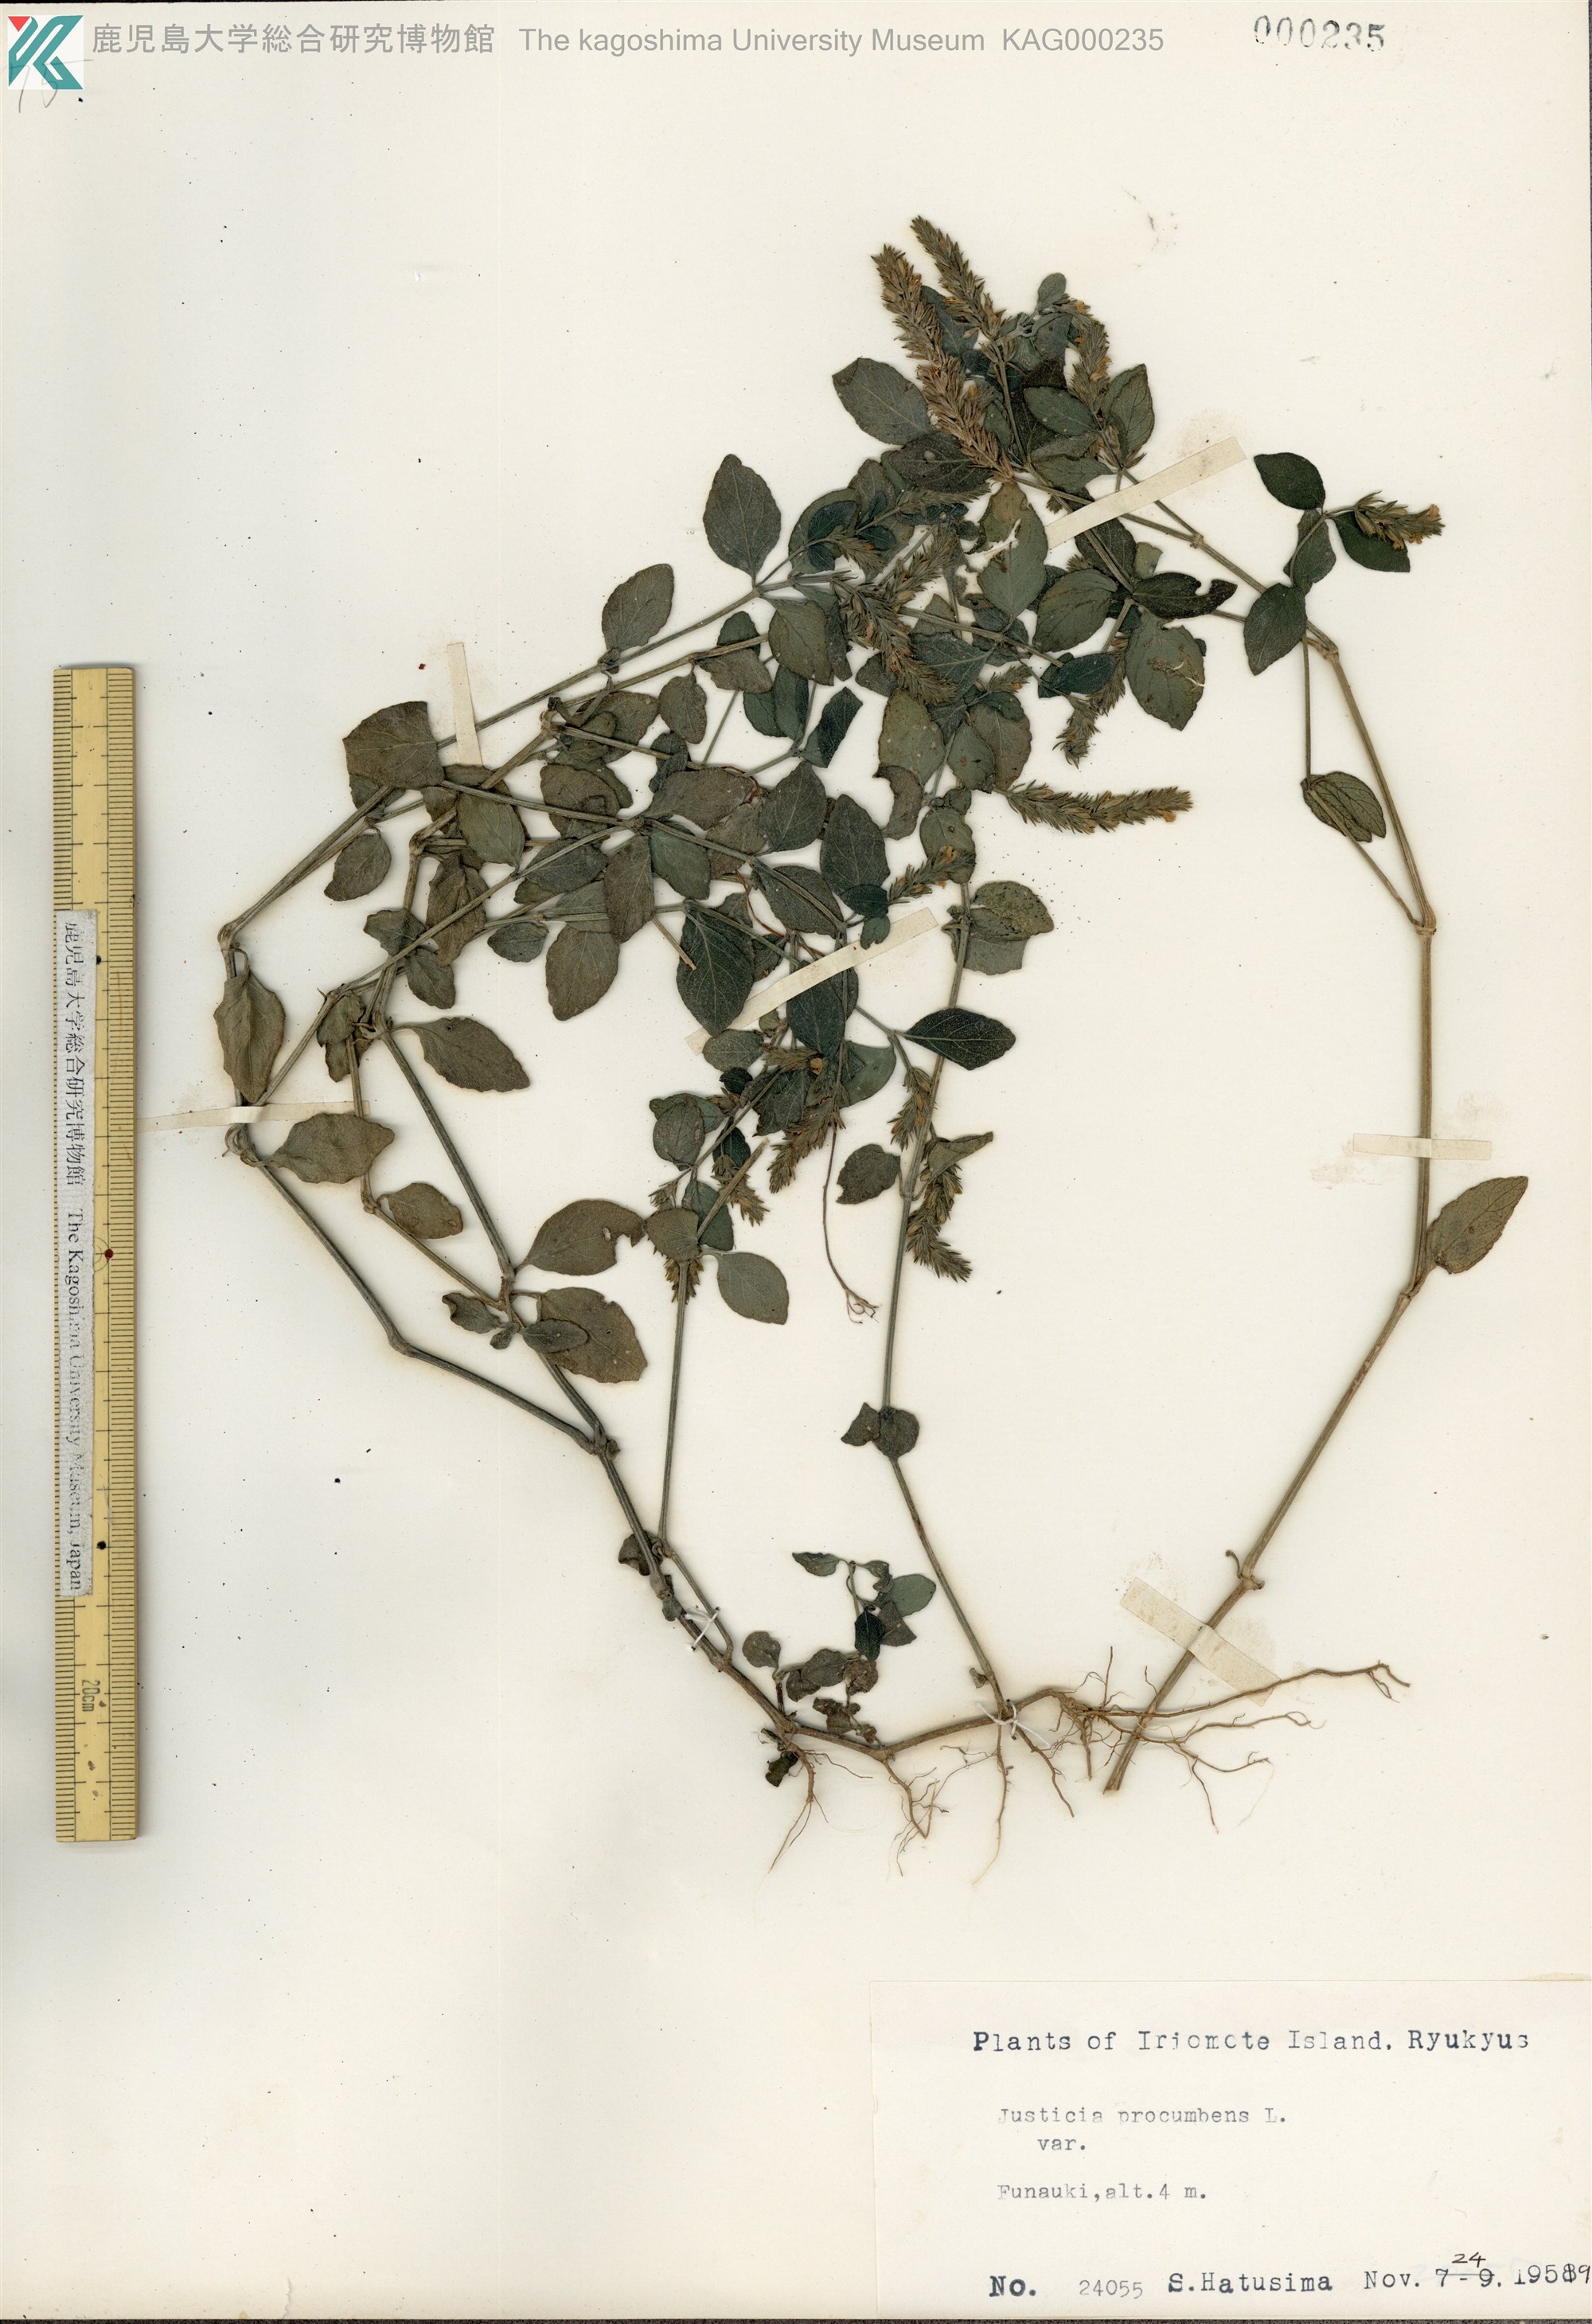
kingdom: Plantae
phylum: Tracheophyta
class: Magnoliopsida
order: Lamiales
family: Acanthaceae
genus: Rostellularia
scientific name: Rostellularia procumbens
